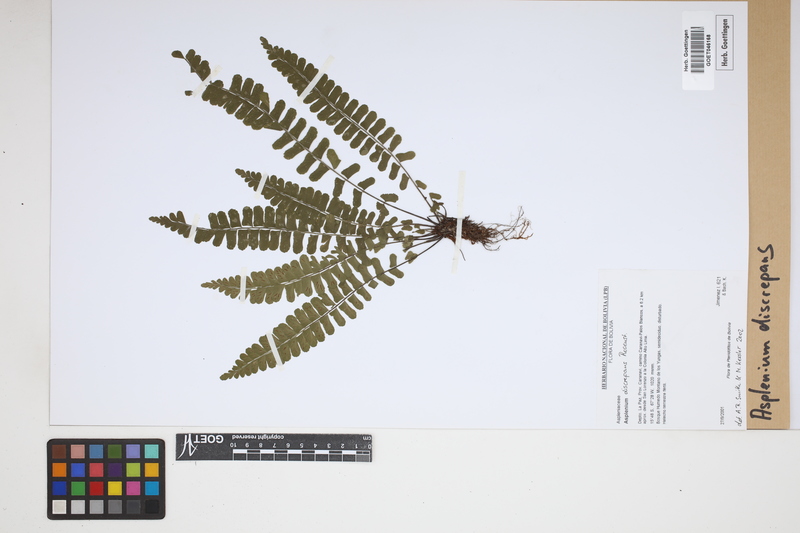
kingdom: Plantae
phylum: Tracheophyta
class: Polypodiopsida
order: Polypodiales
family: Aspleniaceae
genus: Asplenium
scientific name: Asplenium discrepans
